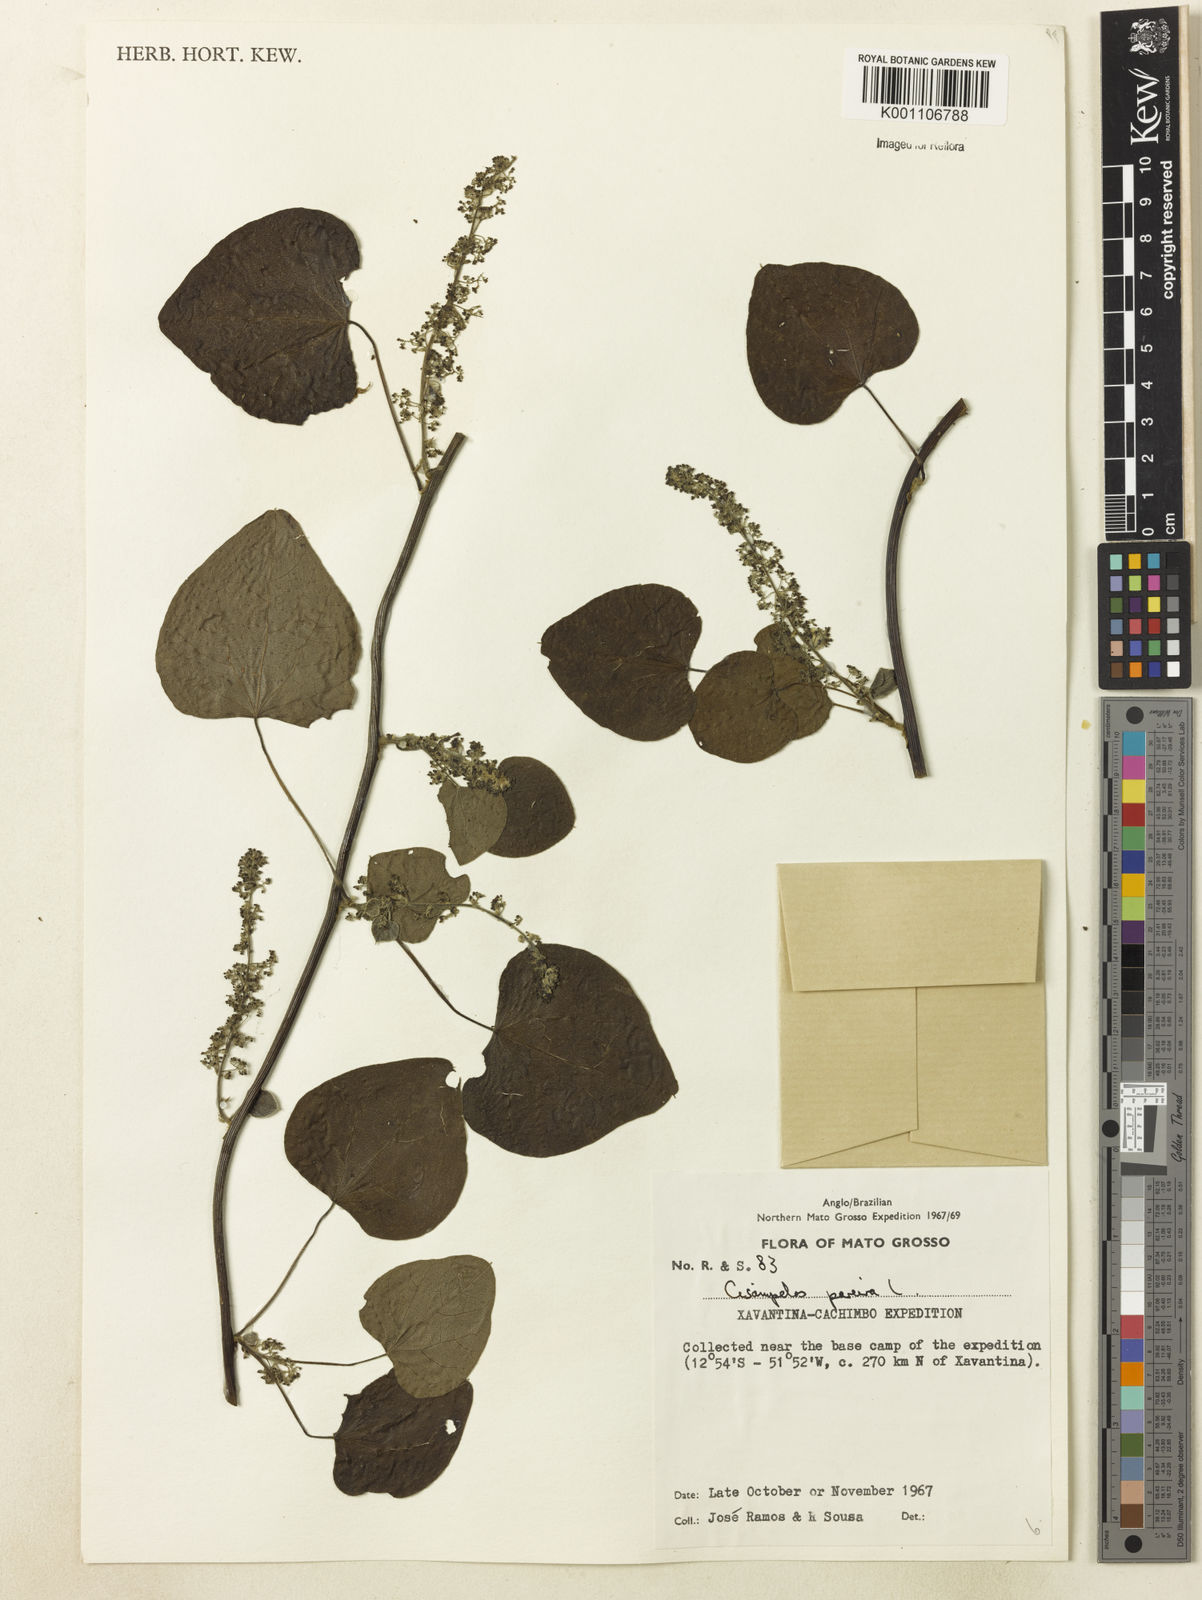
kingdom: Plantae
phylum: Tracheophyta
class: Magnoliopsida
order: Ranunculales
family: Menispermaceae
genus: Cissampelos
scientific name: Cissampelos pareira
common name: Velvetleaf
